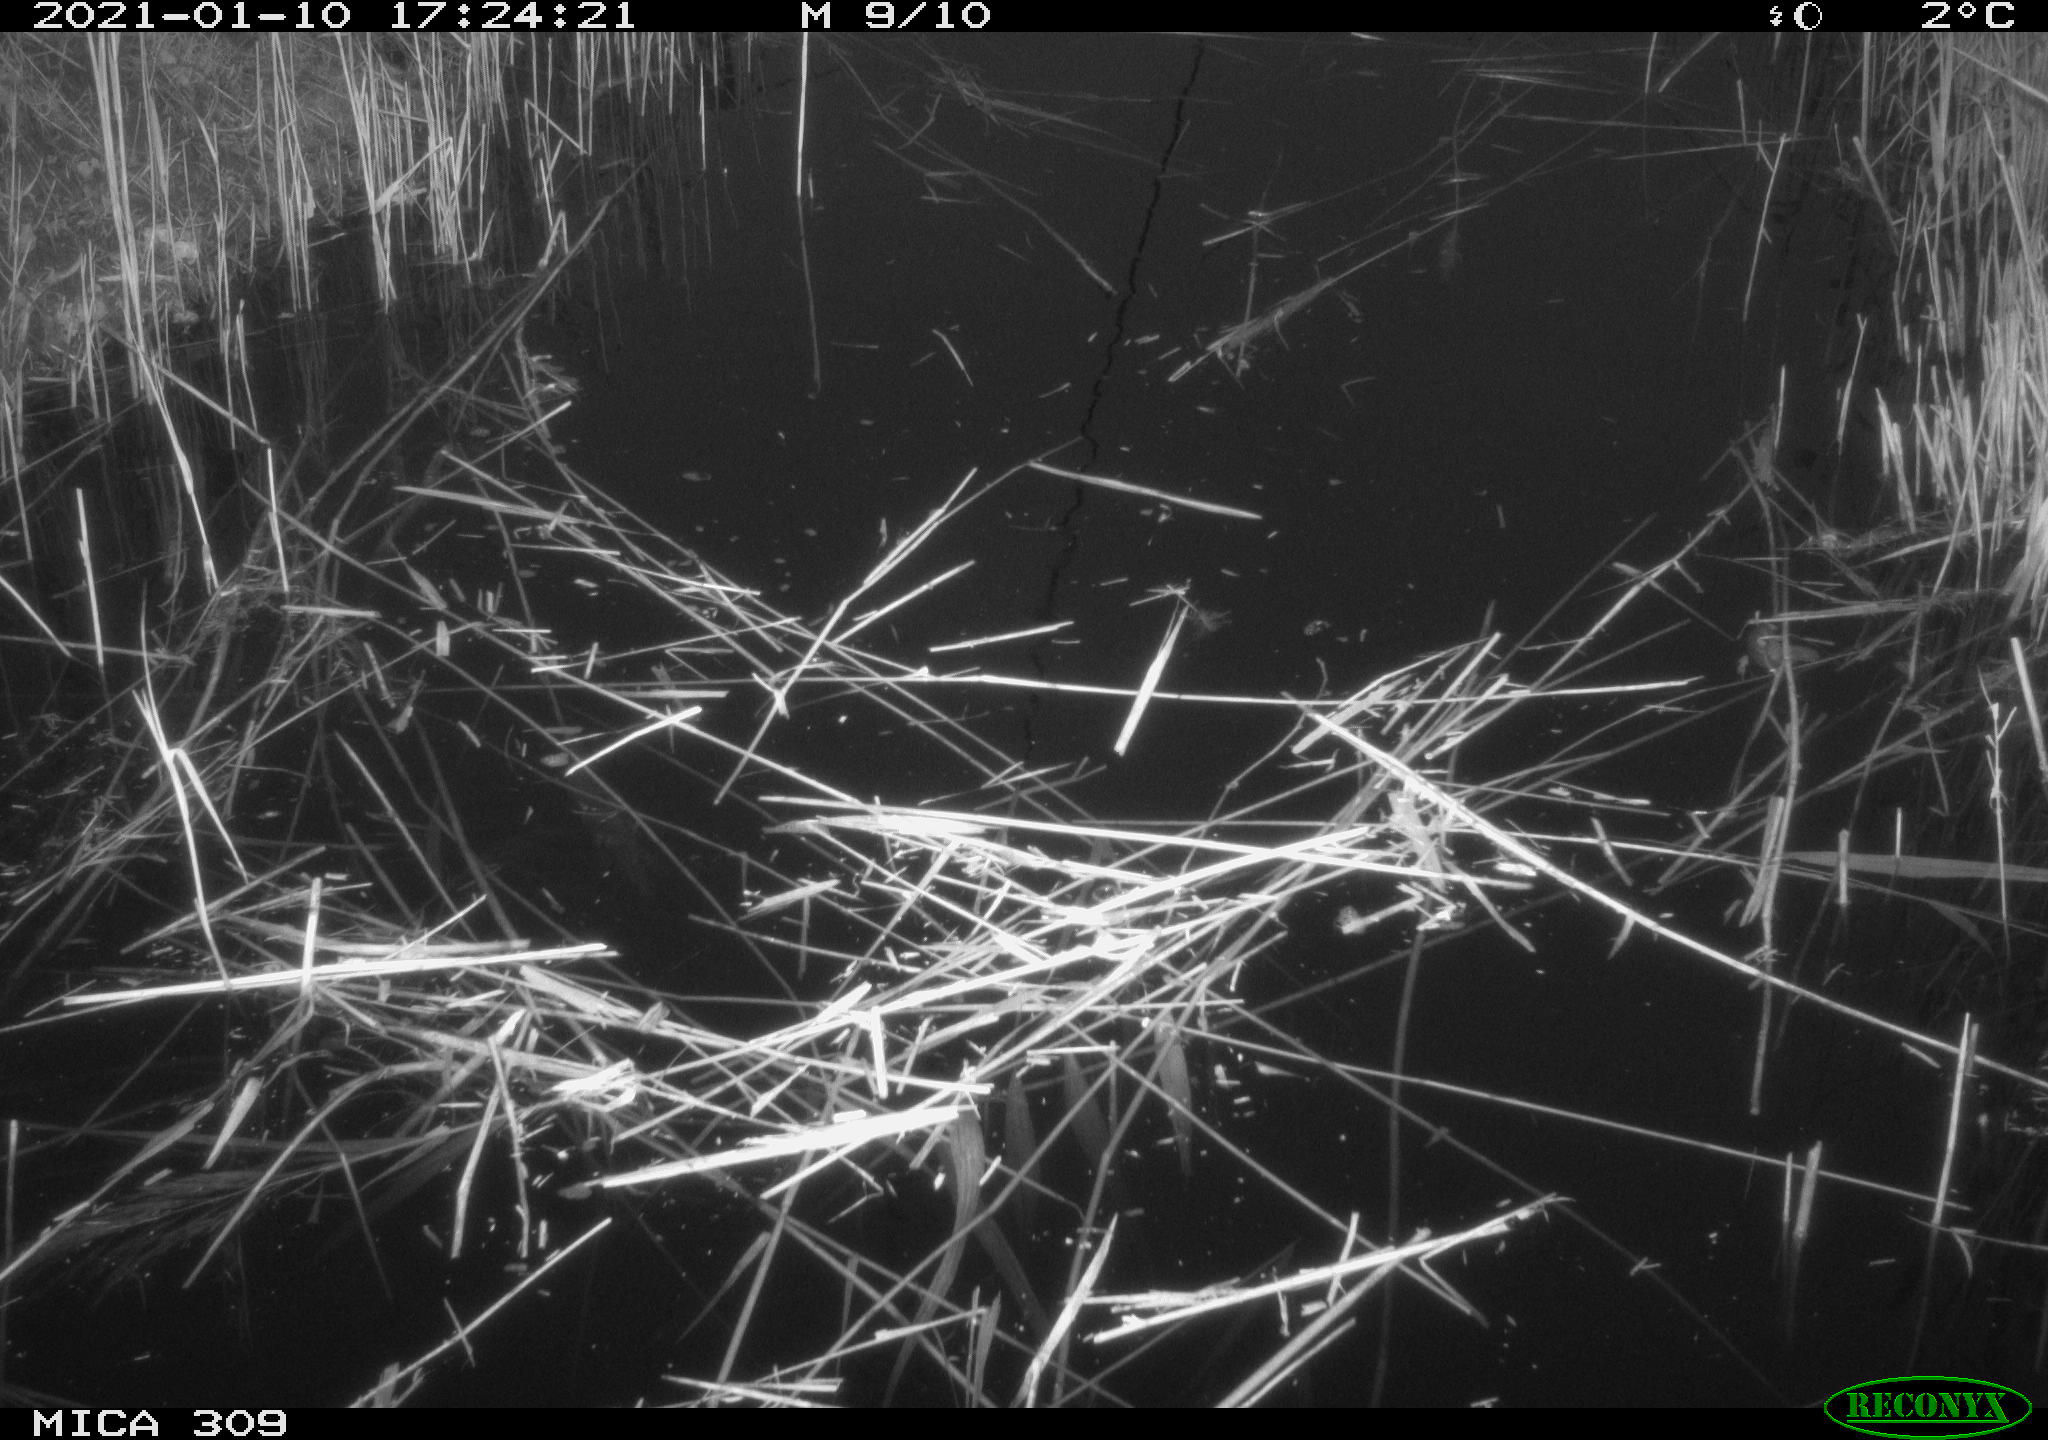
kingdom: Animalia
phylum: Chordata
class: Aves
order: Gruiformes
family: Rallidae
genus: Fulica
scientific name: Fulica atra
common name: Eurasian coot
